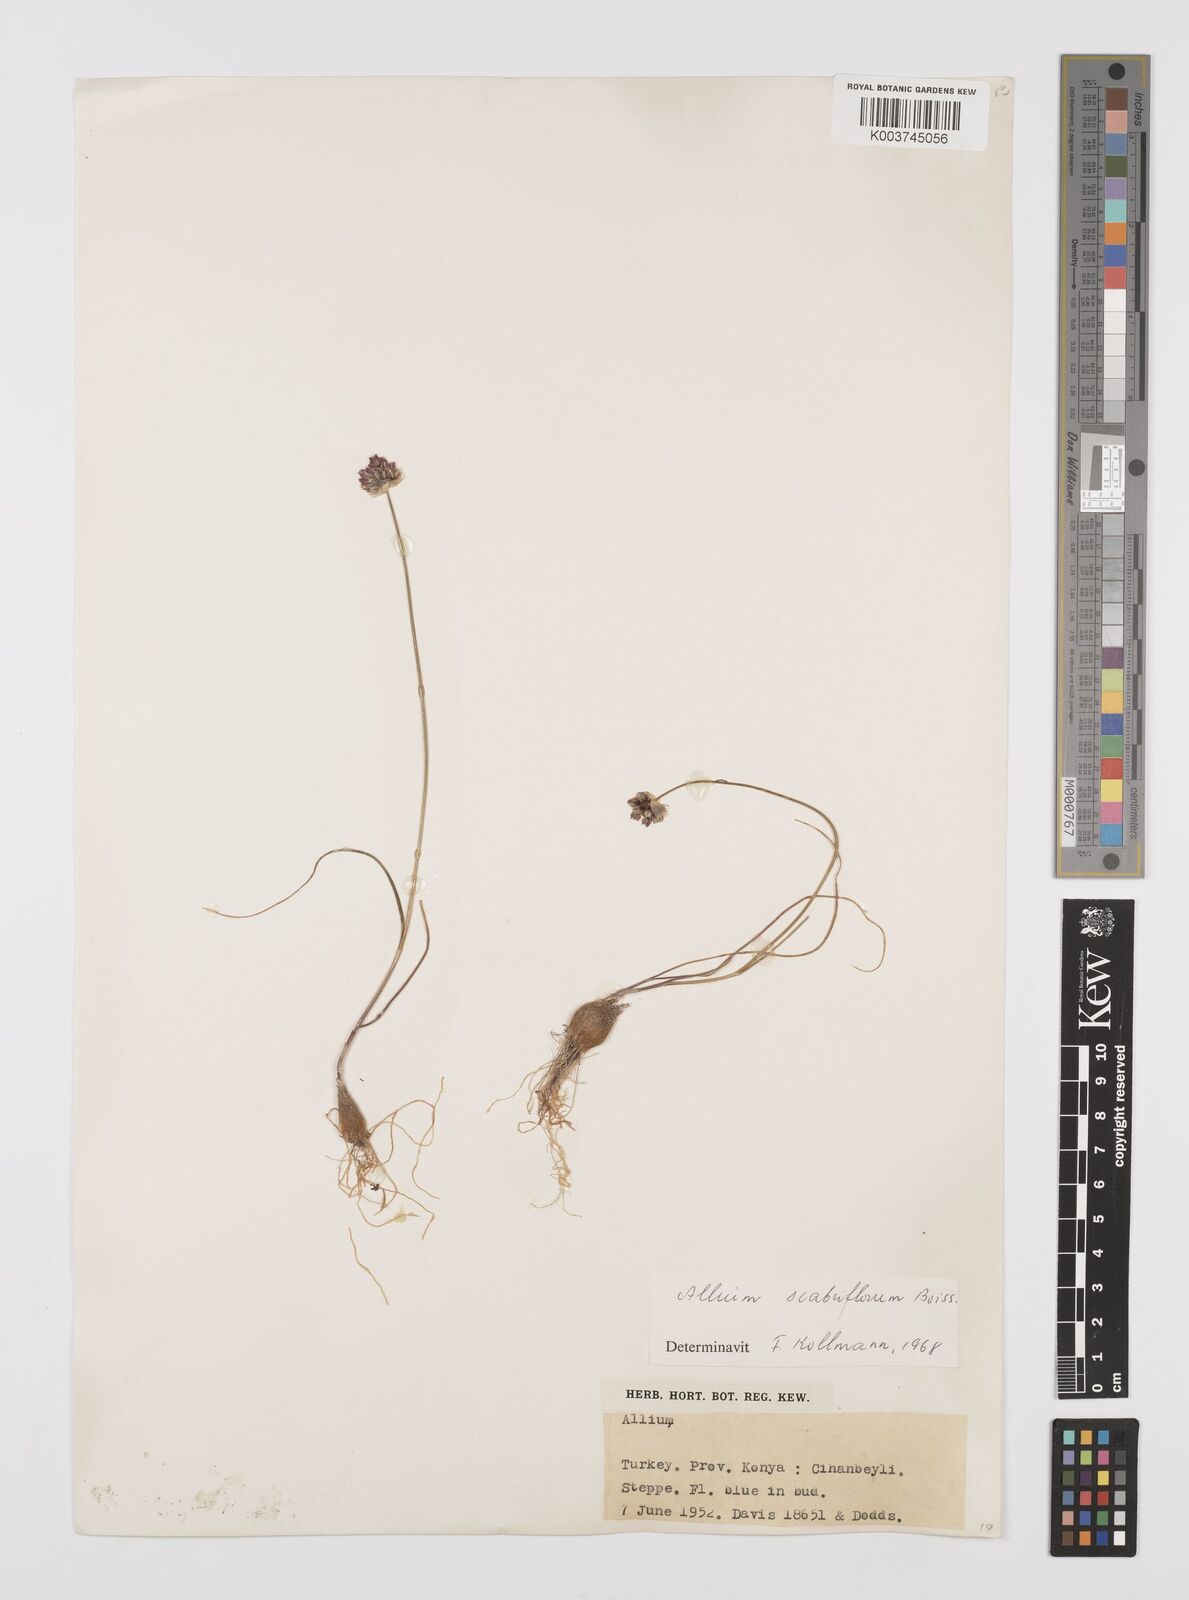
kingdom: Plantae
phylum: Tracheophyta
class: Liliopsida
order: Asparagales
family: Amaryllidaceae
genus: Allium
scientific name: Allium scabriflorum
